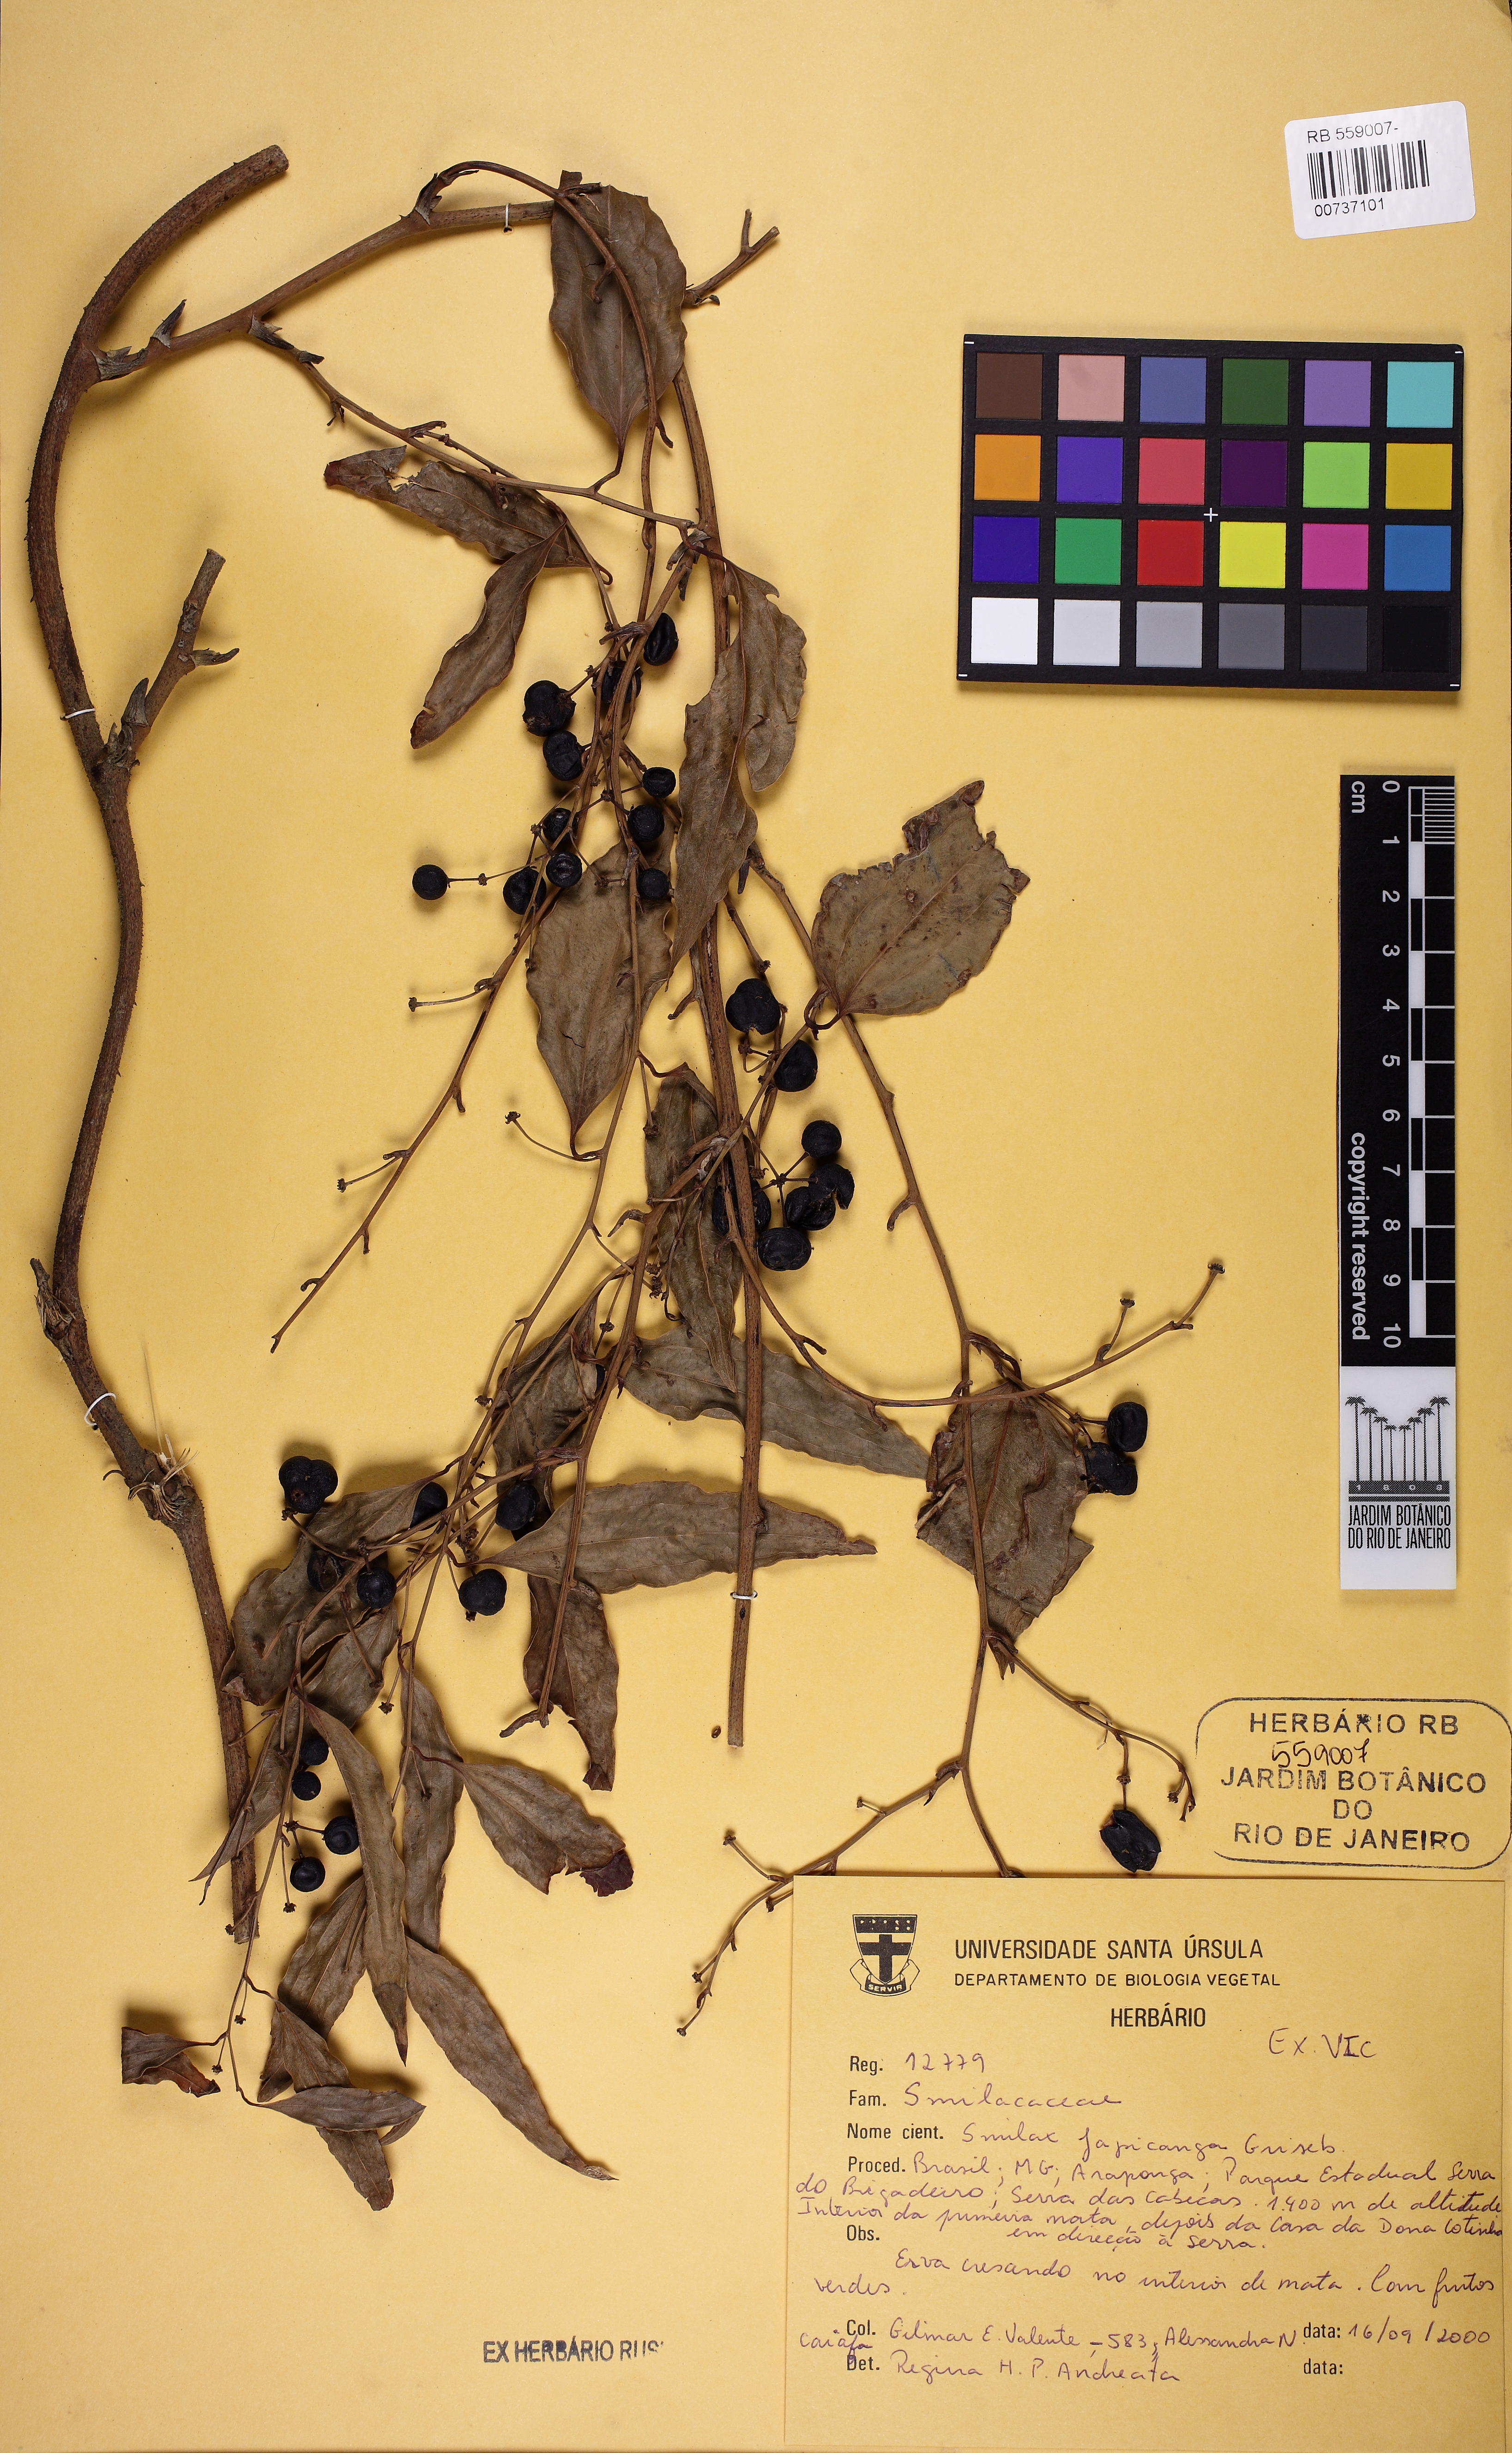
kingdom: Plantae
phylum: Tracheophyta
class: Liliopsida
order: Liliales
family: Smilacaceae
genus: Smilax
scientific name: Smilax japicanga
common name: Japicanga
